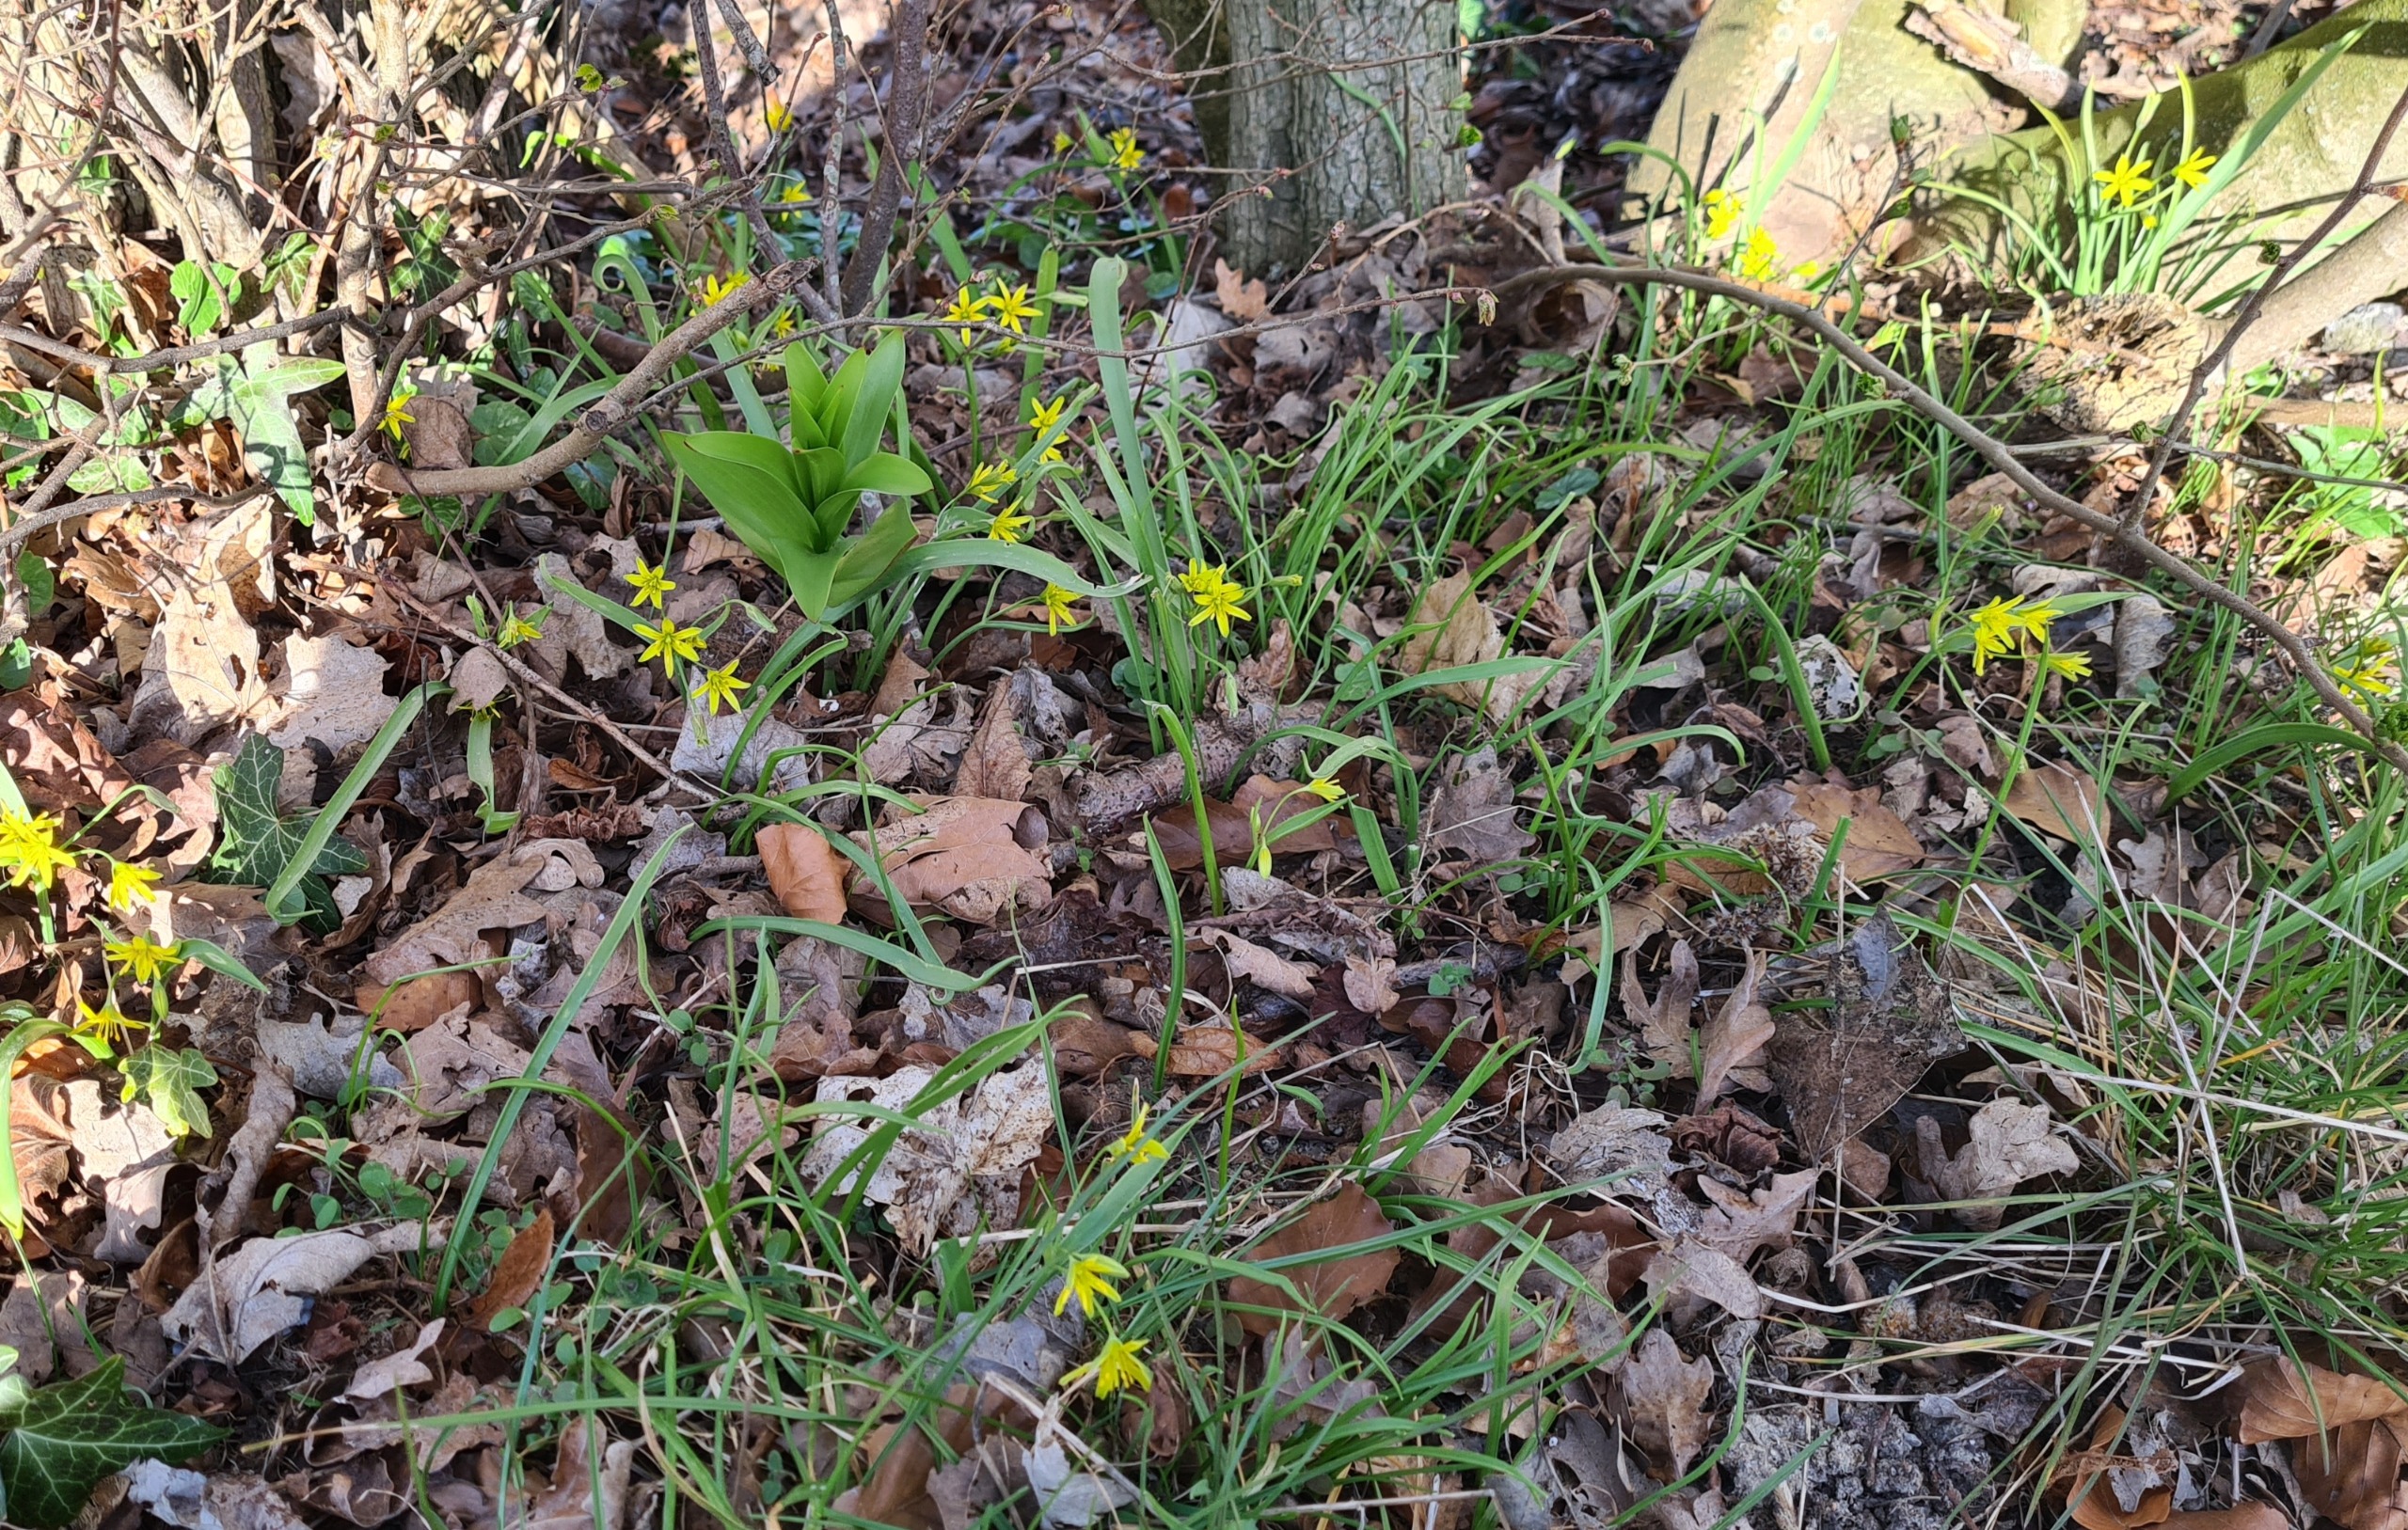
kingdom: Plantae
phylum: Tracheophyta
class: Liliopsida
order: Liliales
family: Liliaceae
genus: Gagea
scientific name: Gagea lutea
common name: Almindelig guldstjerne
